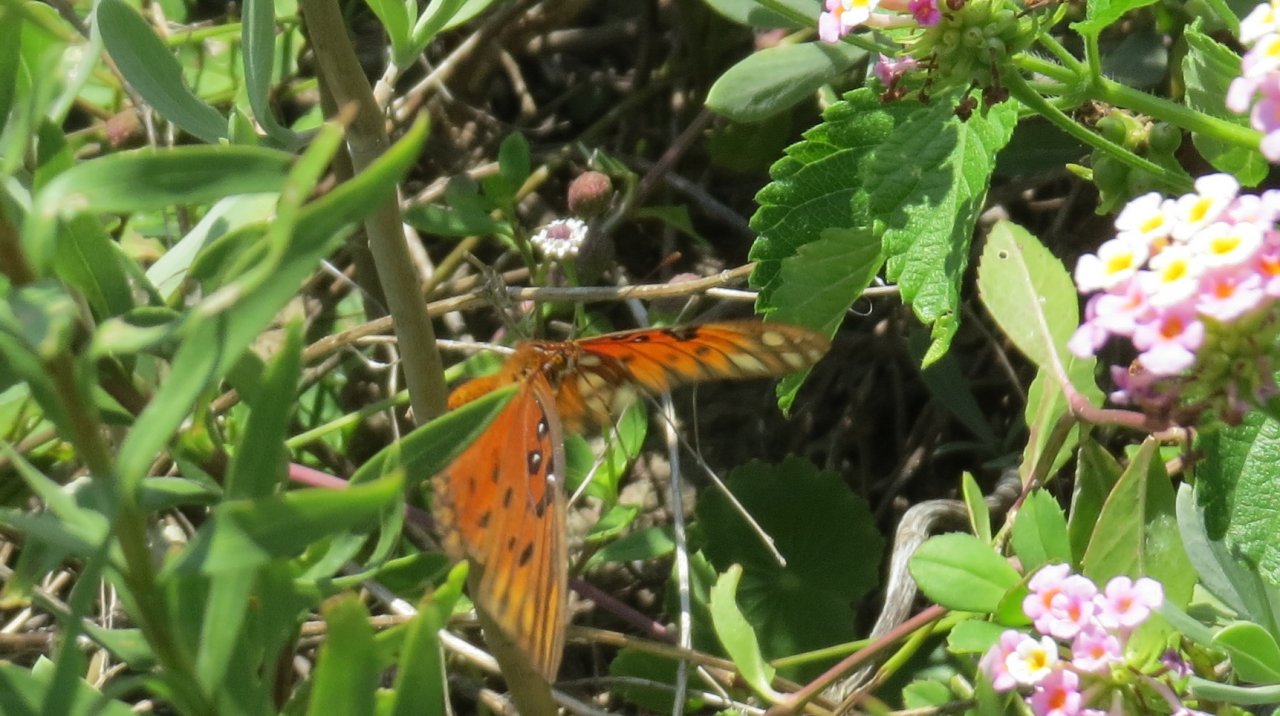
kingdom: Animalia
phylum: Arthropoda
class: Insecta
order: Lepidoptera
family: Nymphalidae
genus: Dione
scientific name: Dione vanillae
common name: Gulf Fritillary
